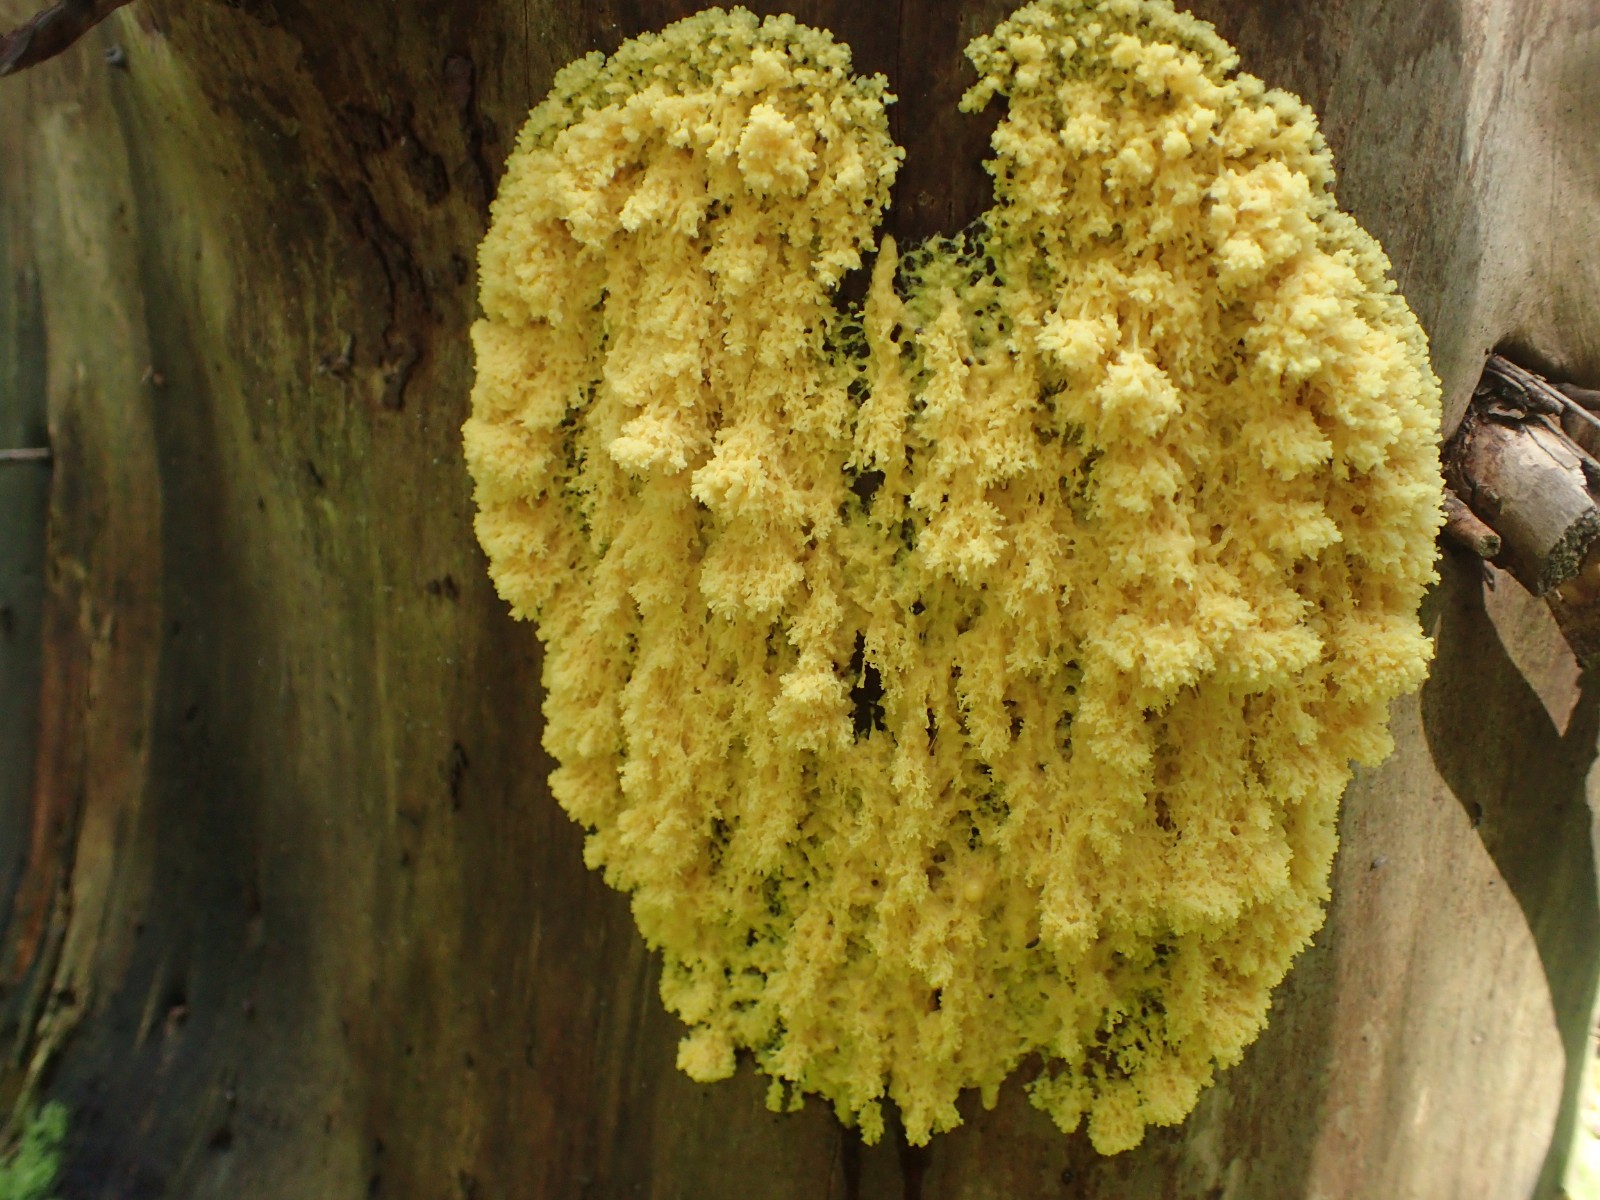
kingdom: Protozoa
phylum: Mycetozoa
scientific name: Mycetozoa
